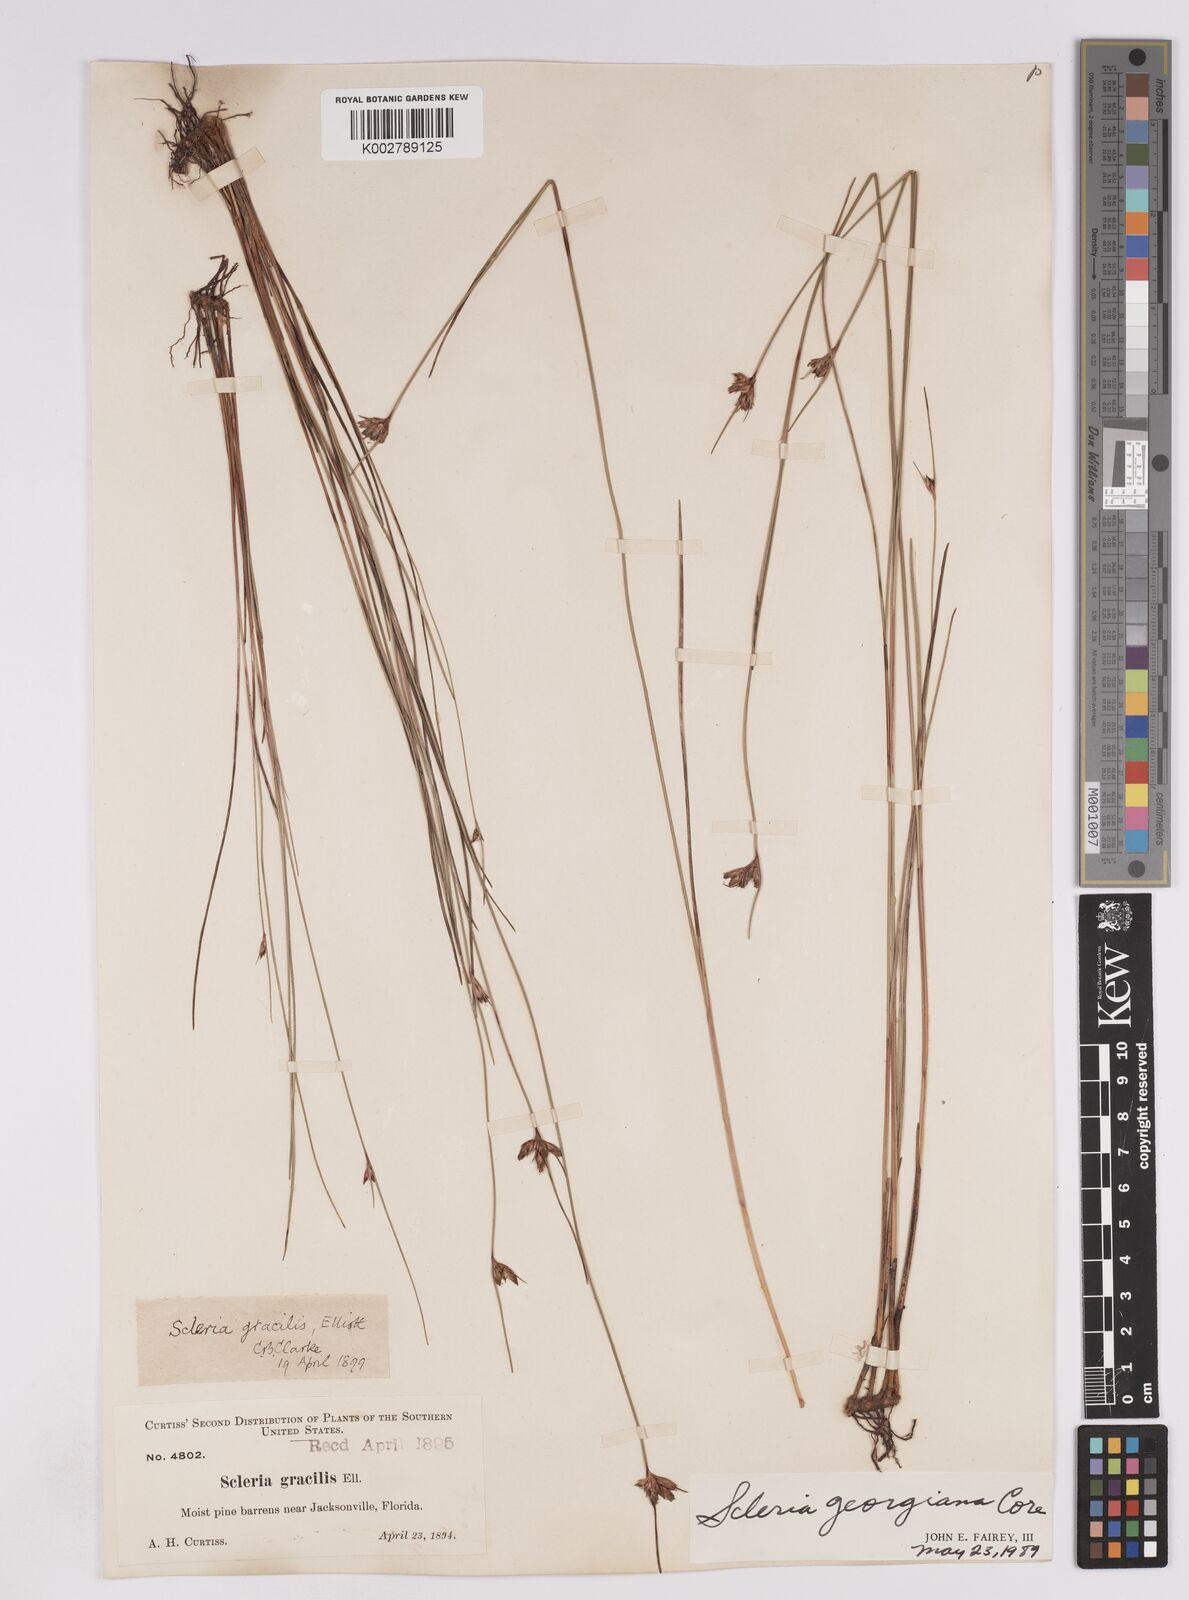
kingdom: Plantae
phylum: Tracheophyta
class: Liliopsida
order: Poales
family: Cyperaceae
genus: Scleria
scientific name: Scleria georgiana
